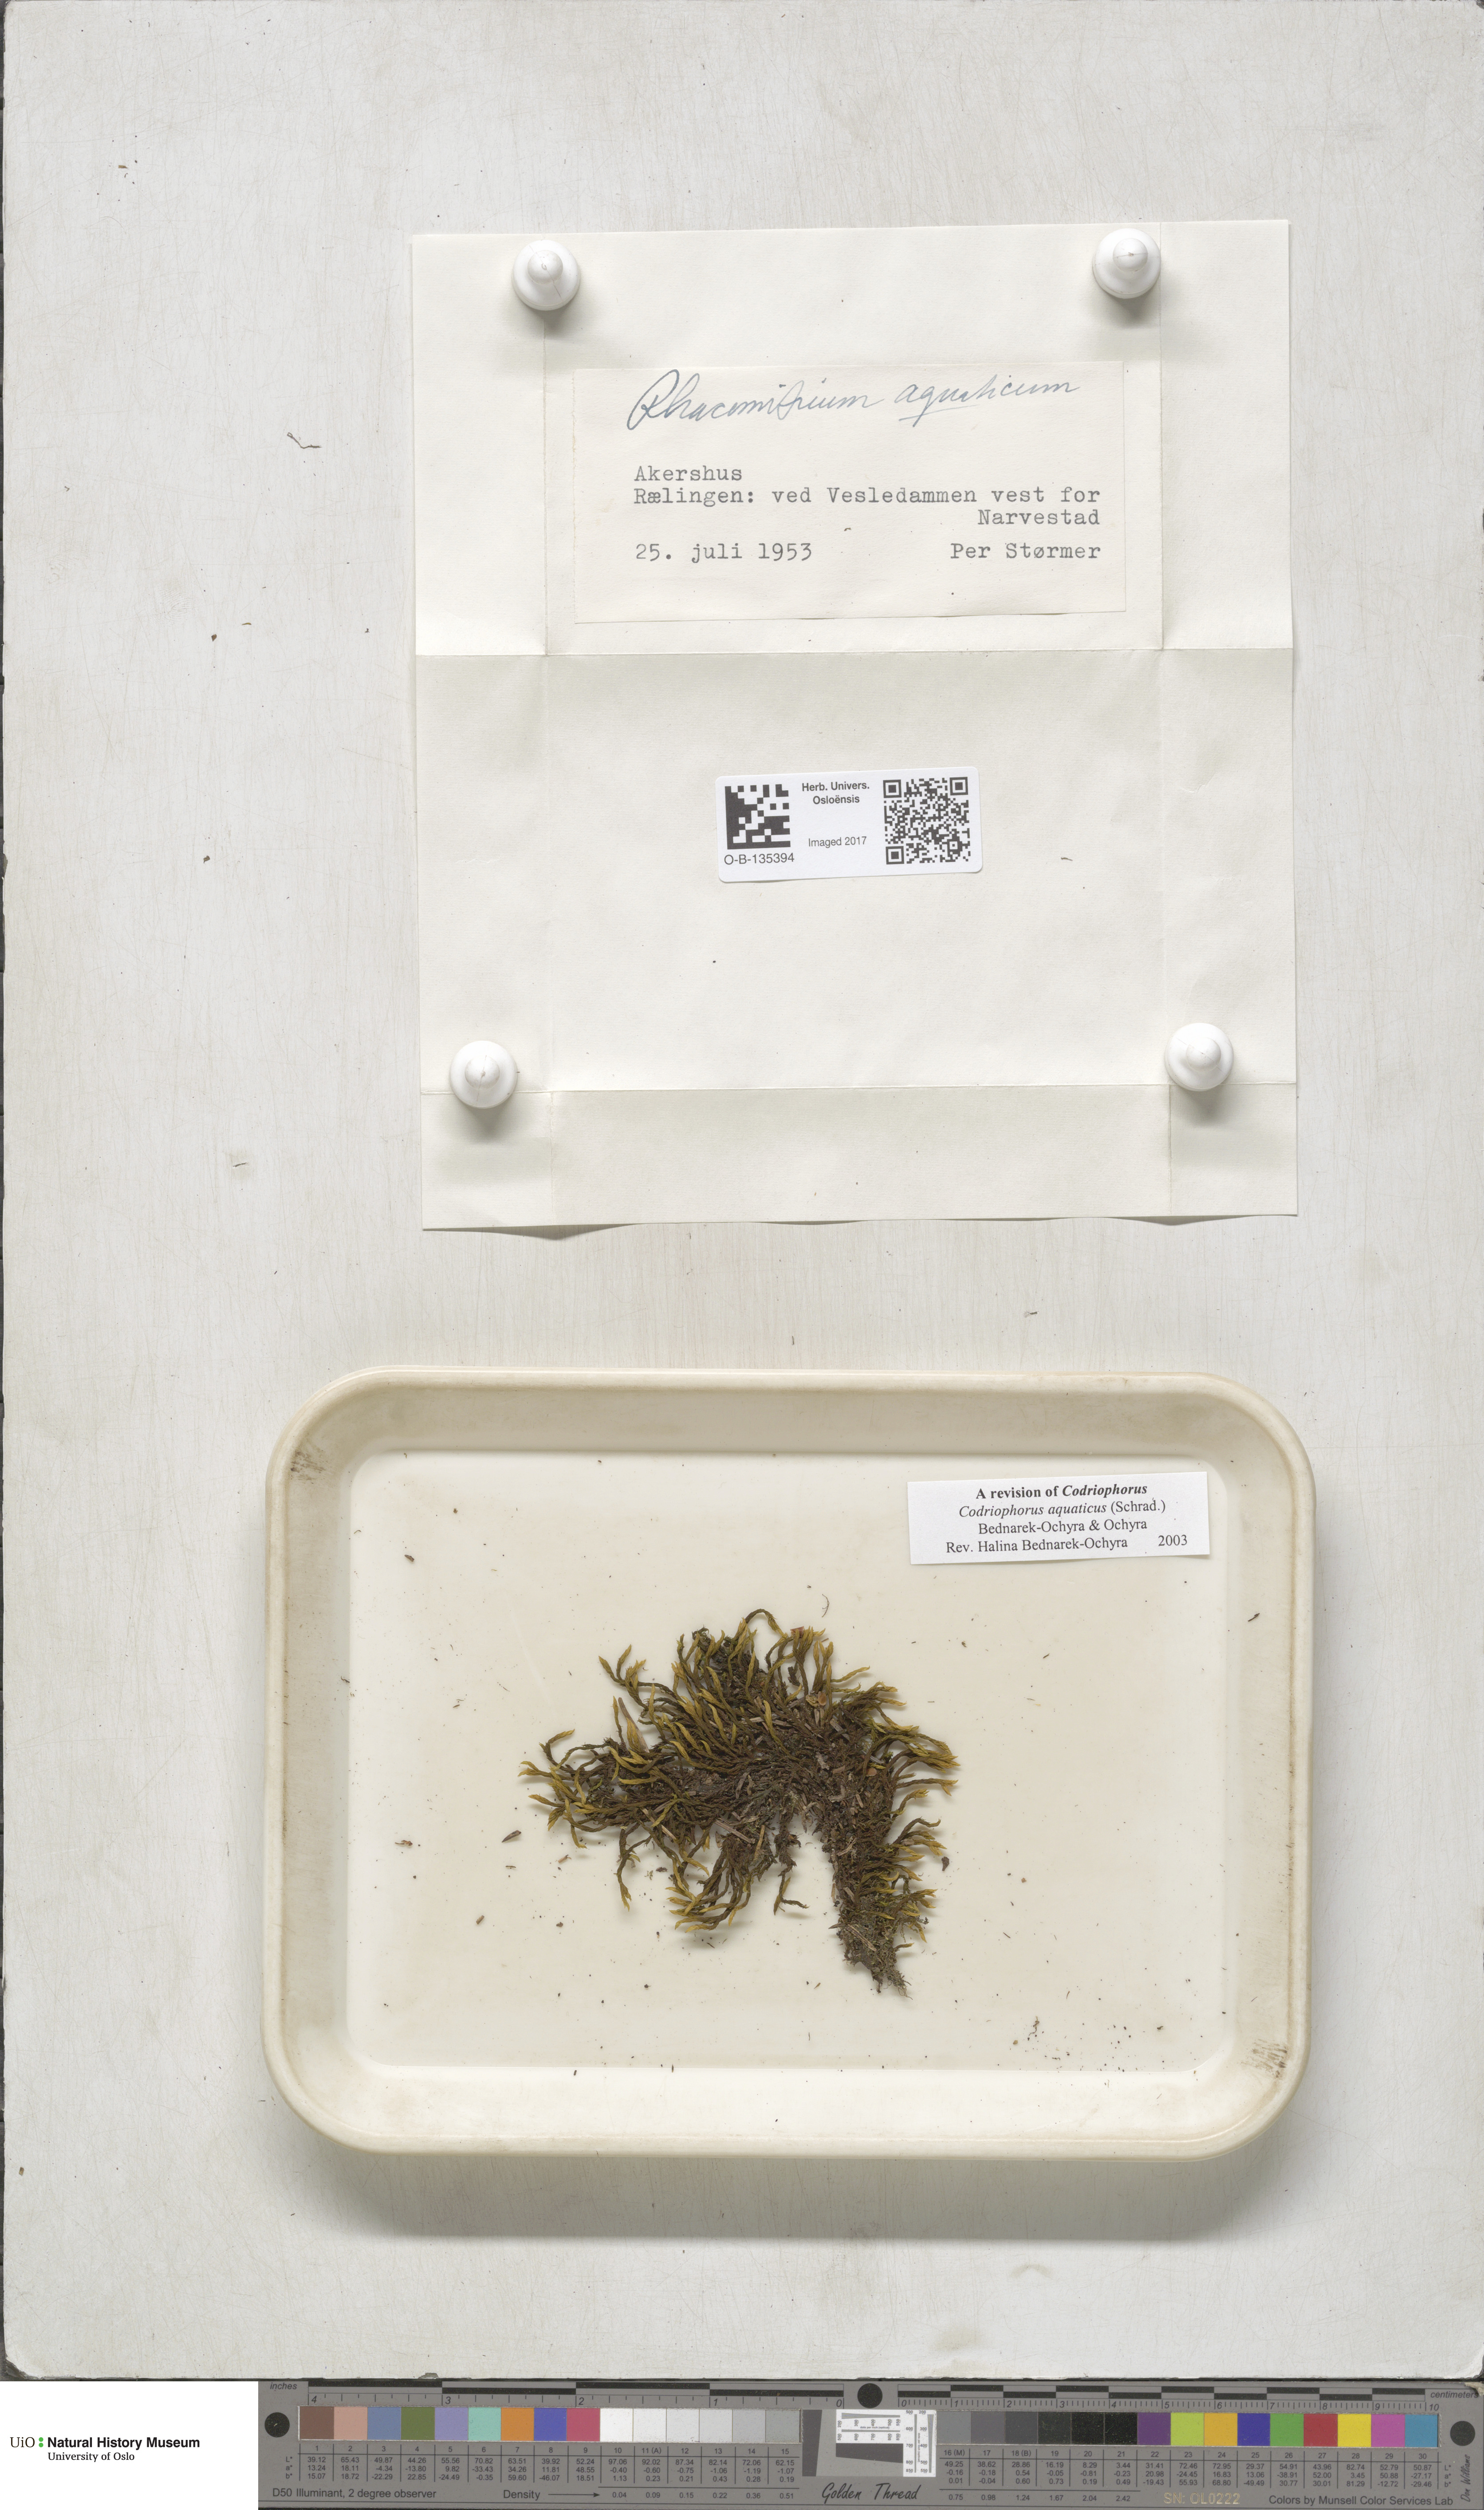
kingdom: Plantae
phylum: Bryophyta
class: Bryopsida
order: Grimmiales
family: Grimmiaceae
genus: Codriophorus
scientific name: Codriophorus aquaticus
